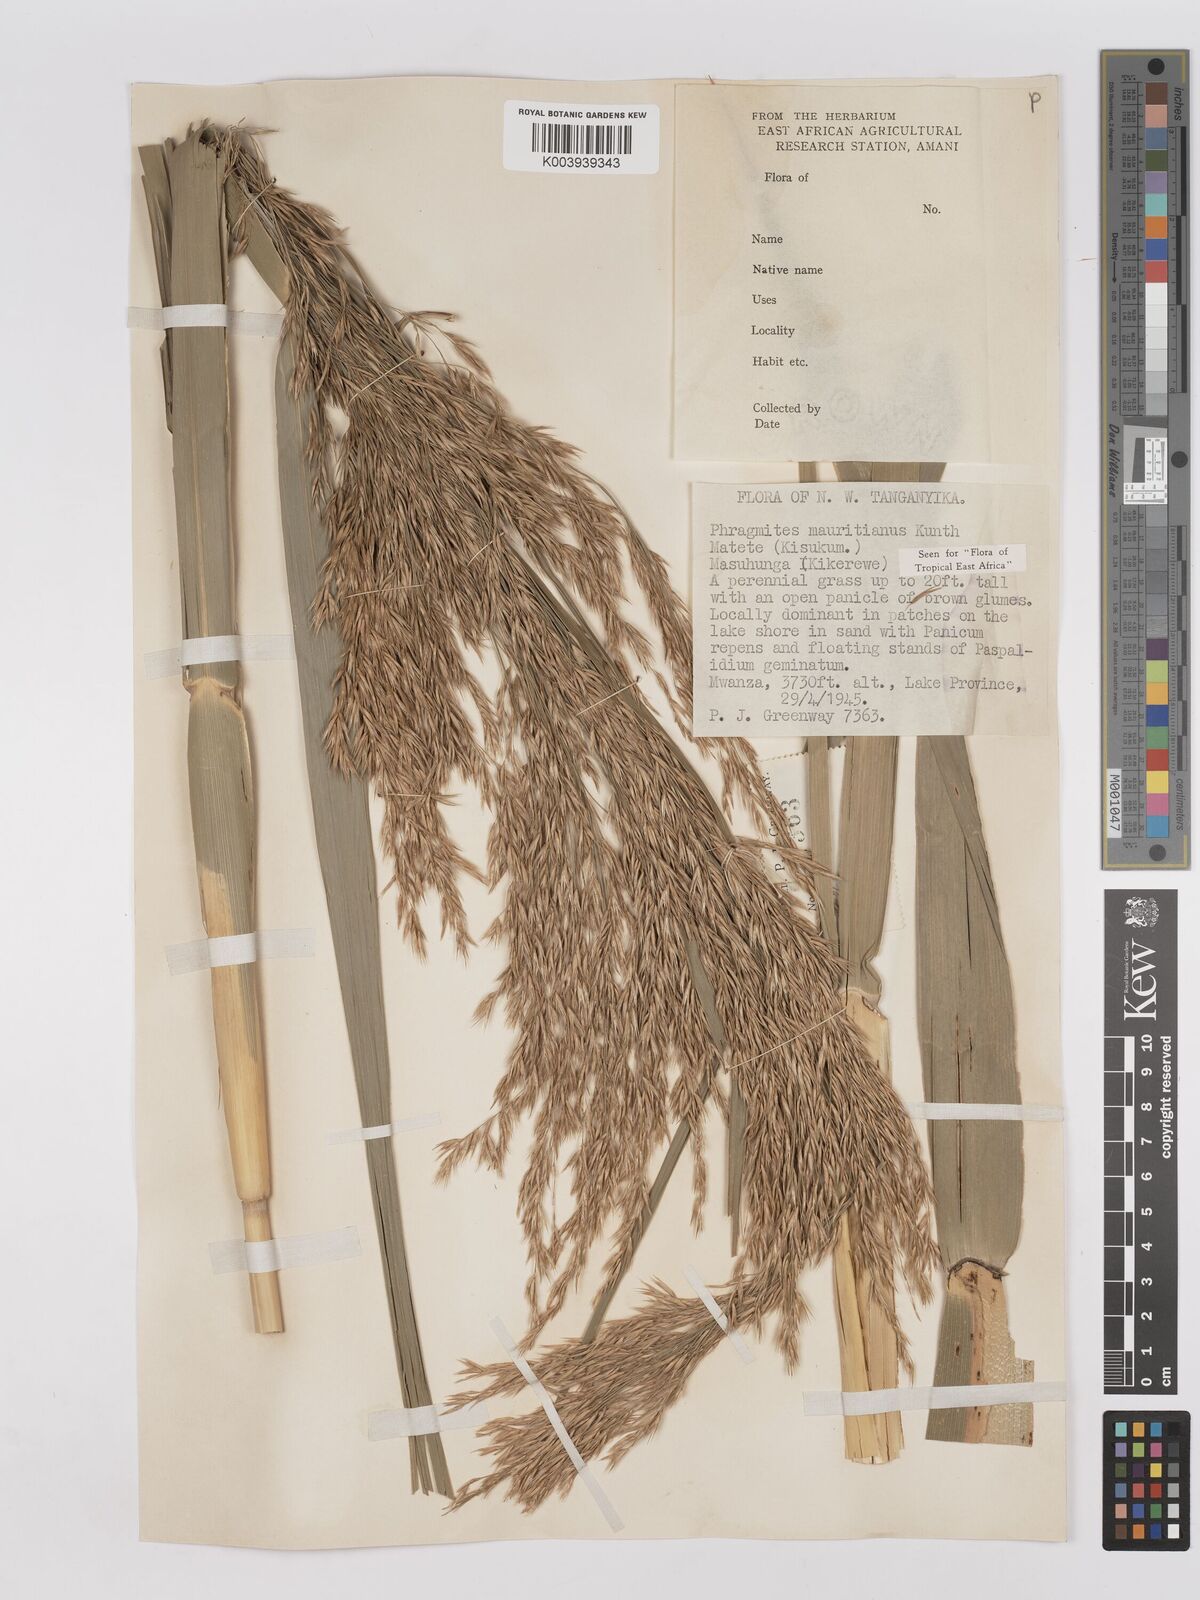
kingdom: Plantae
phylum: Tracheophyta
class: Liliopsida
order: Poales
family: Poaceae
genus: Phragmites
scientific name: Phragmites mauritianus
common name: Reed grass
